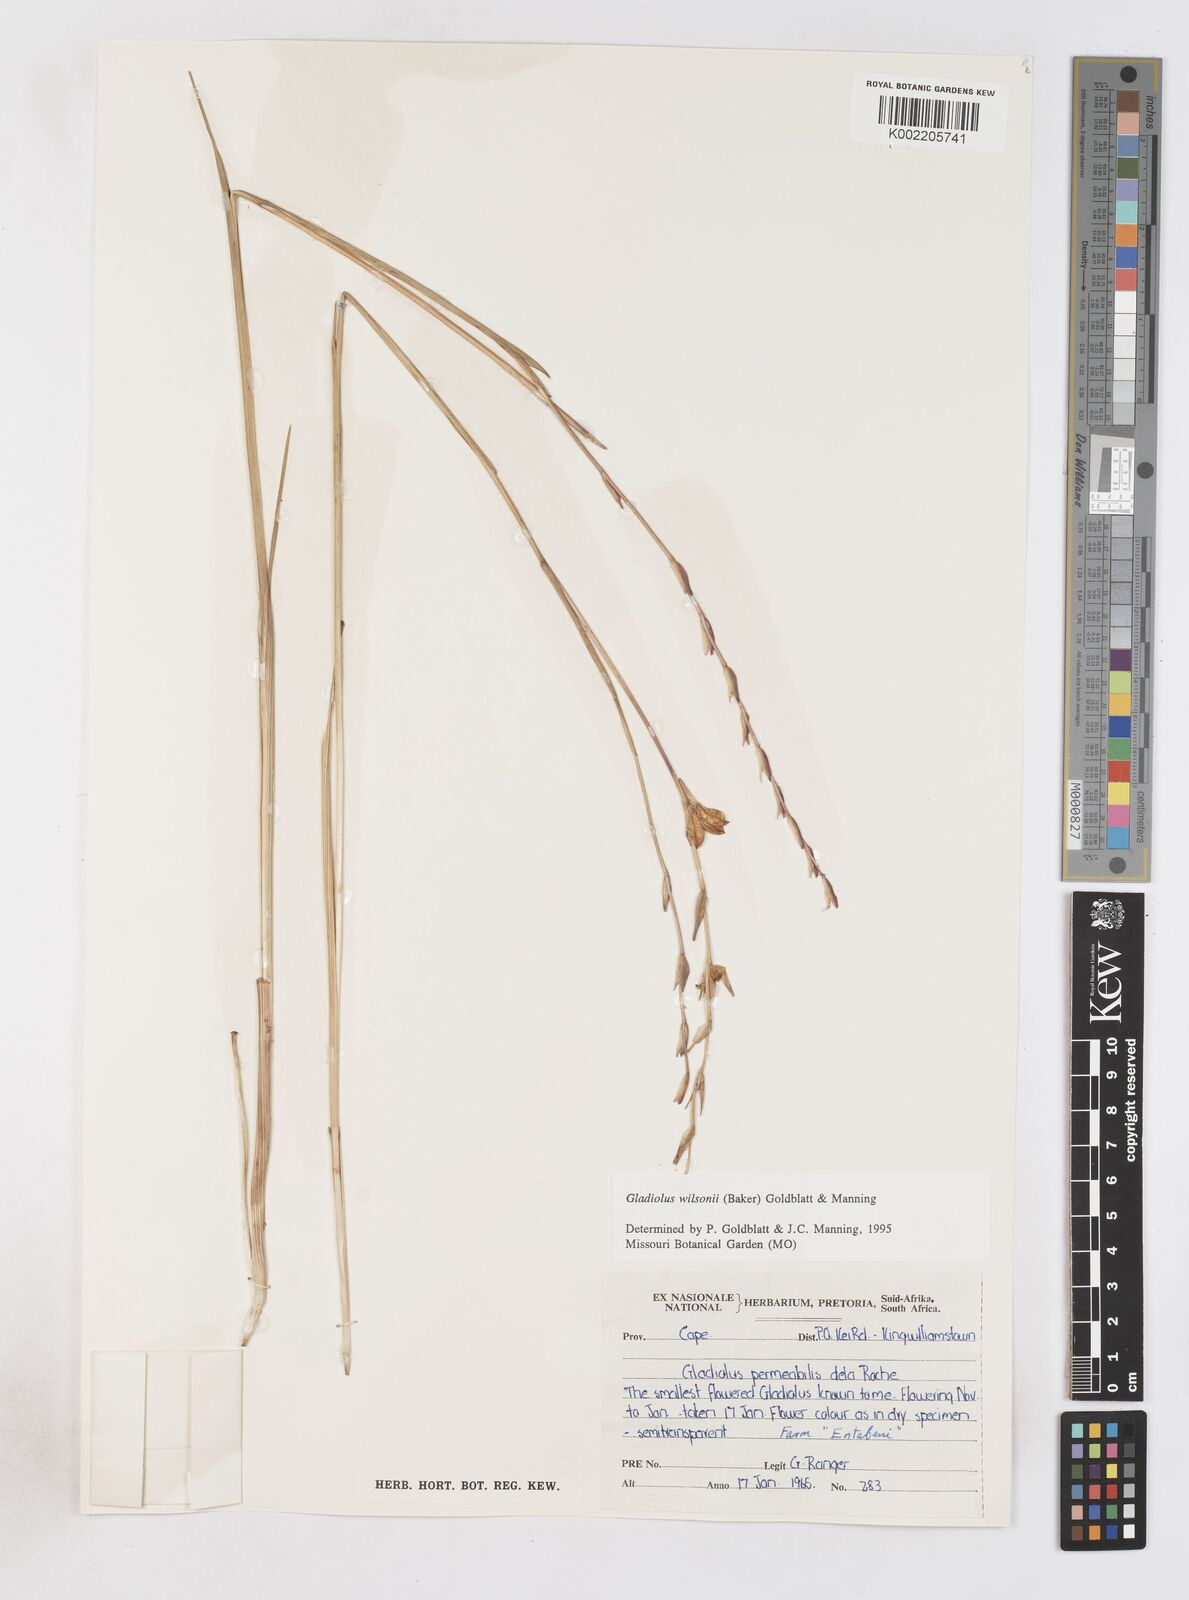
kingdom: Plantae
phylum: Tracheophyta
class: Liliopsida
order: Asparagales
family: Iridaceae
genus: Gladiolus
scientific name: Gladiolus permeabilis
